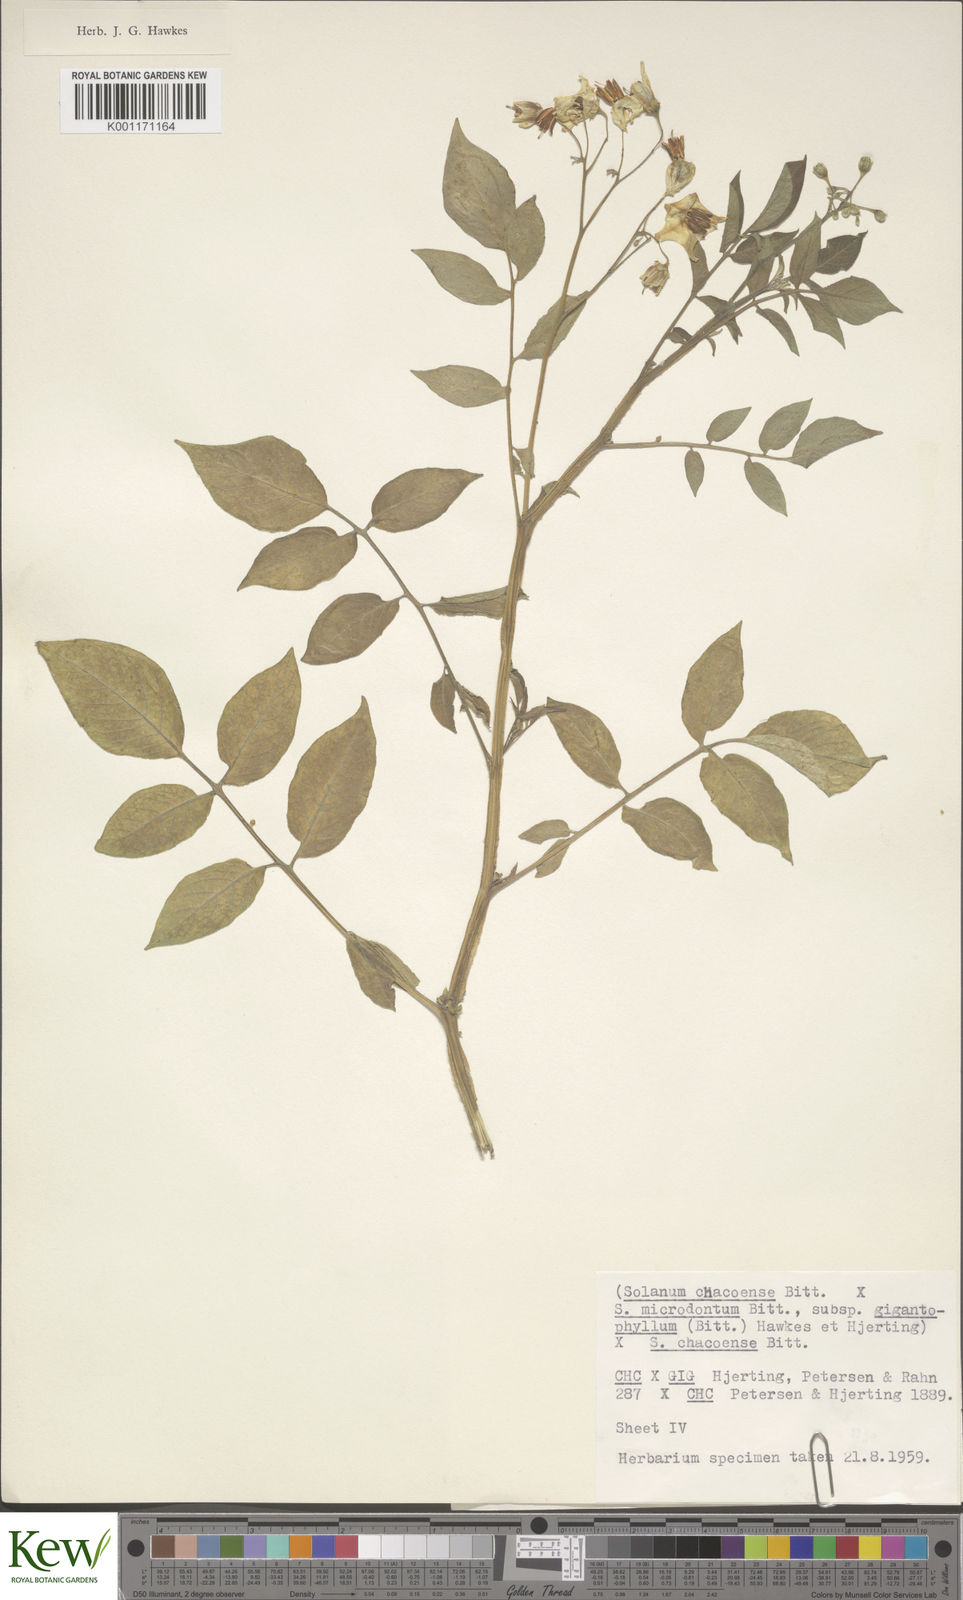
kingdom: Plantae
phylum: Tracheophyta
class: Magnoliopsida
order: Solanales
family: Solanaceae
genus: Solanum
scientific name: Solanum microdontum
